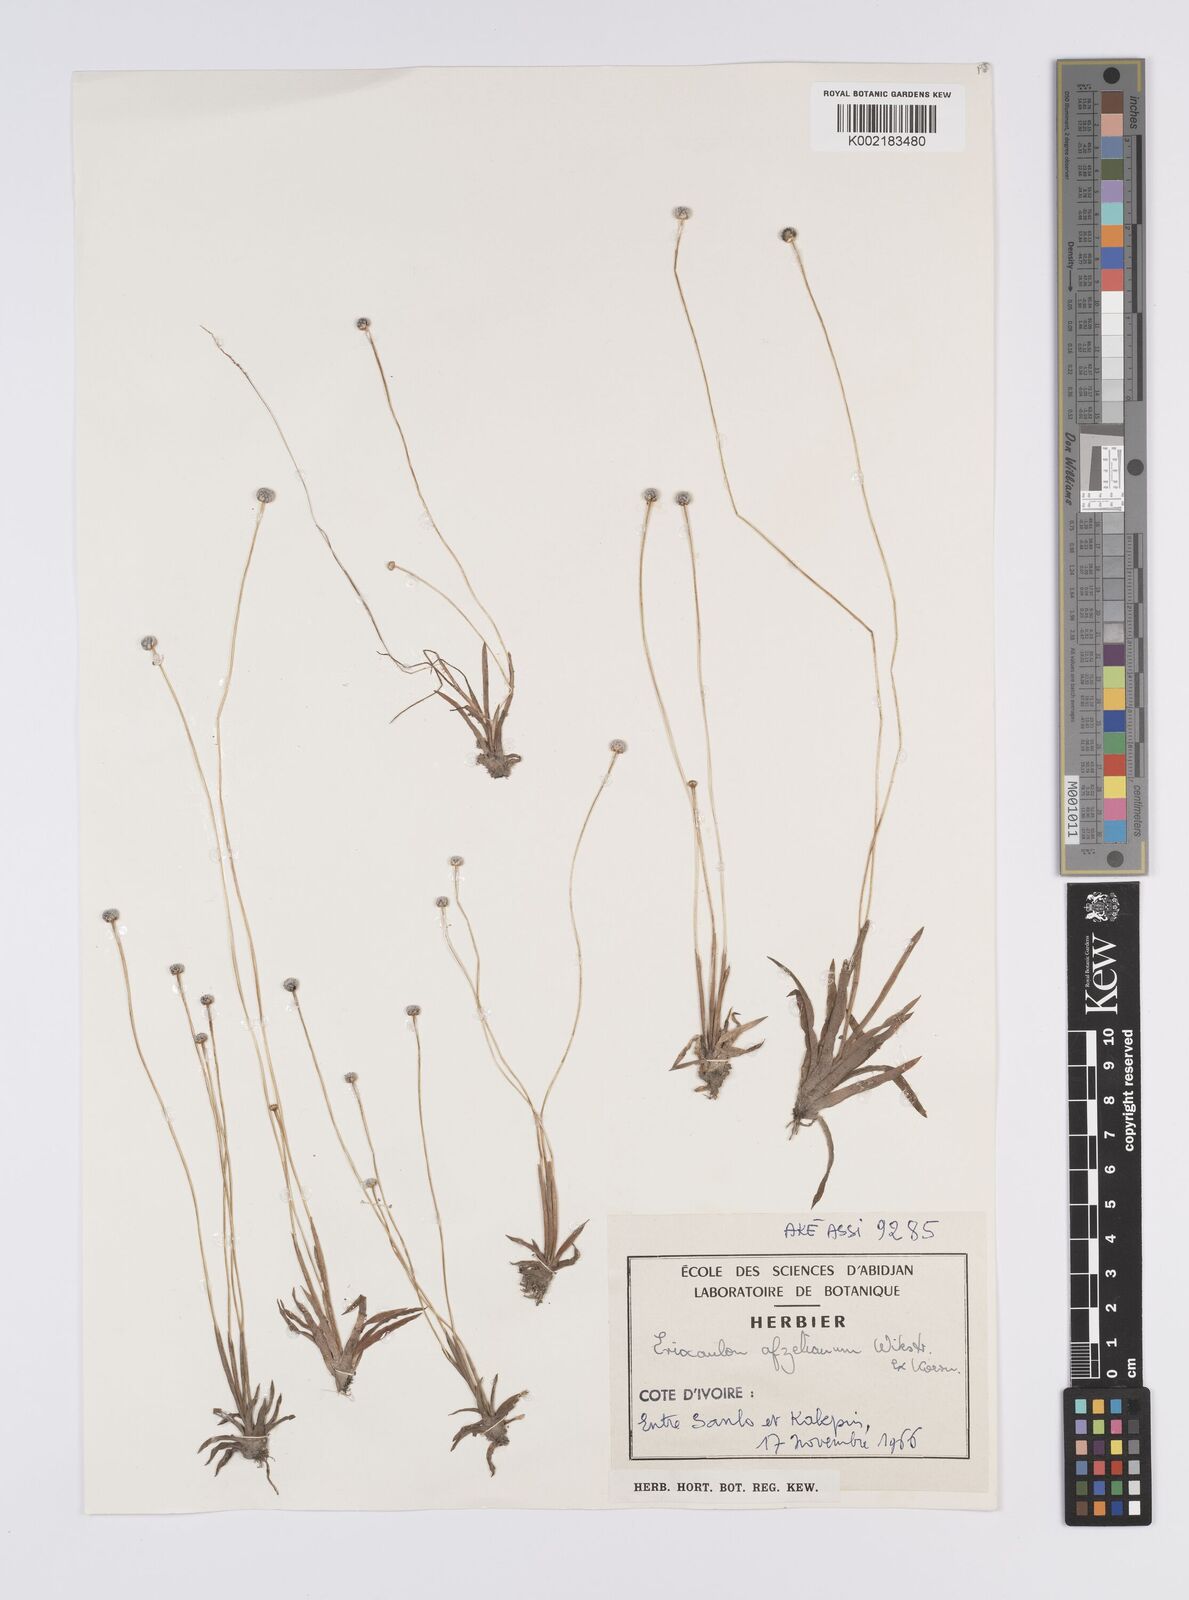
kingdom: Plantae
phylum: Tracheophyta
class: Liliopsida
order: Poales
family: Eriocaulaceae
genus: Eriocaulon
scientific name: Eriocaulon afzelianum
